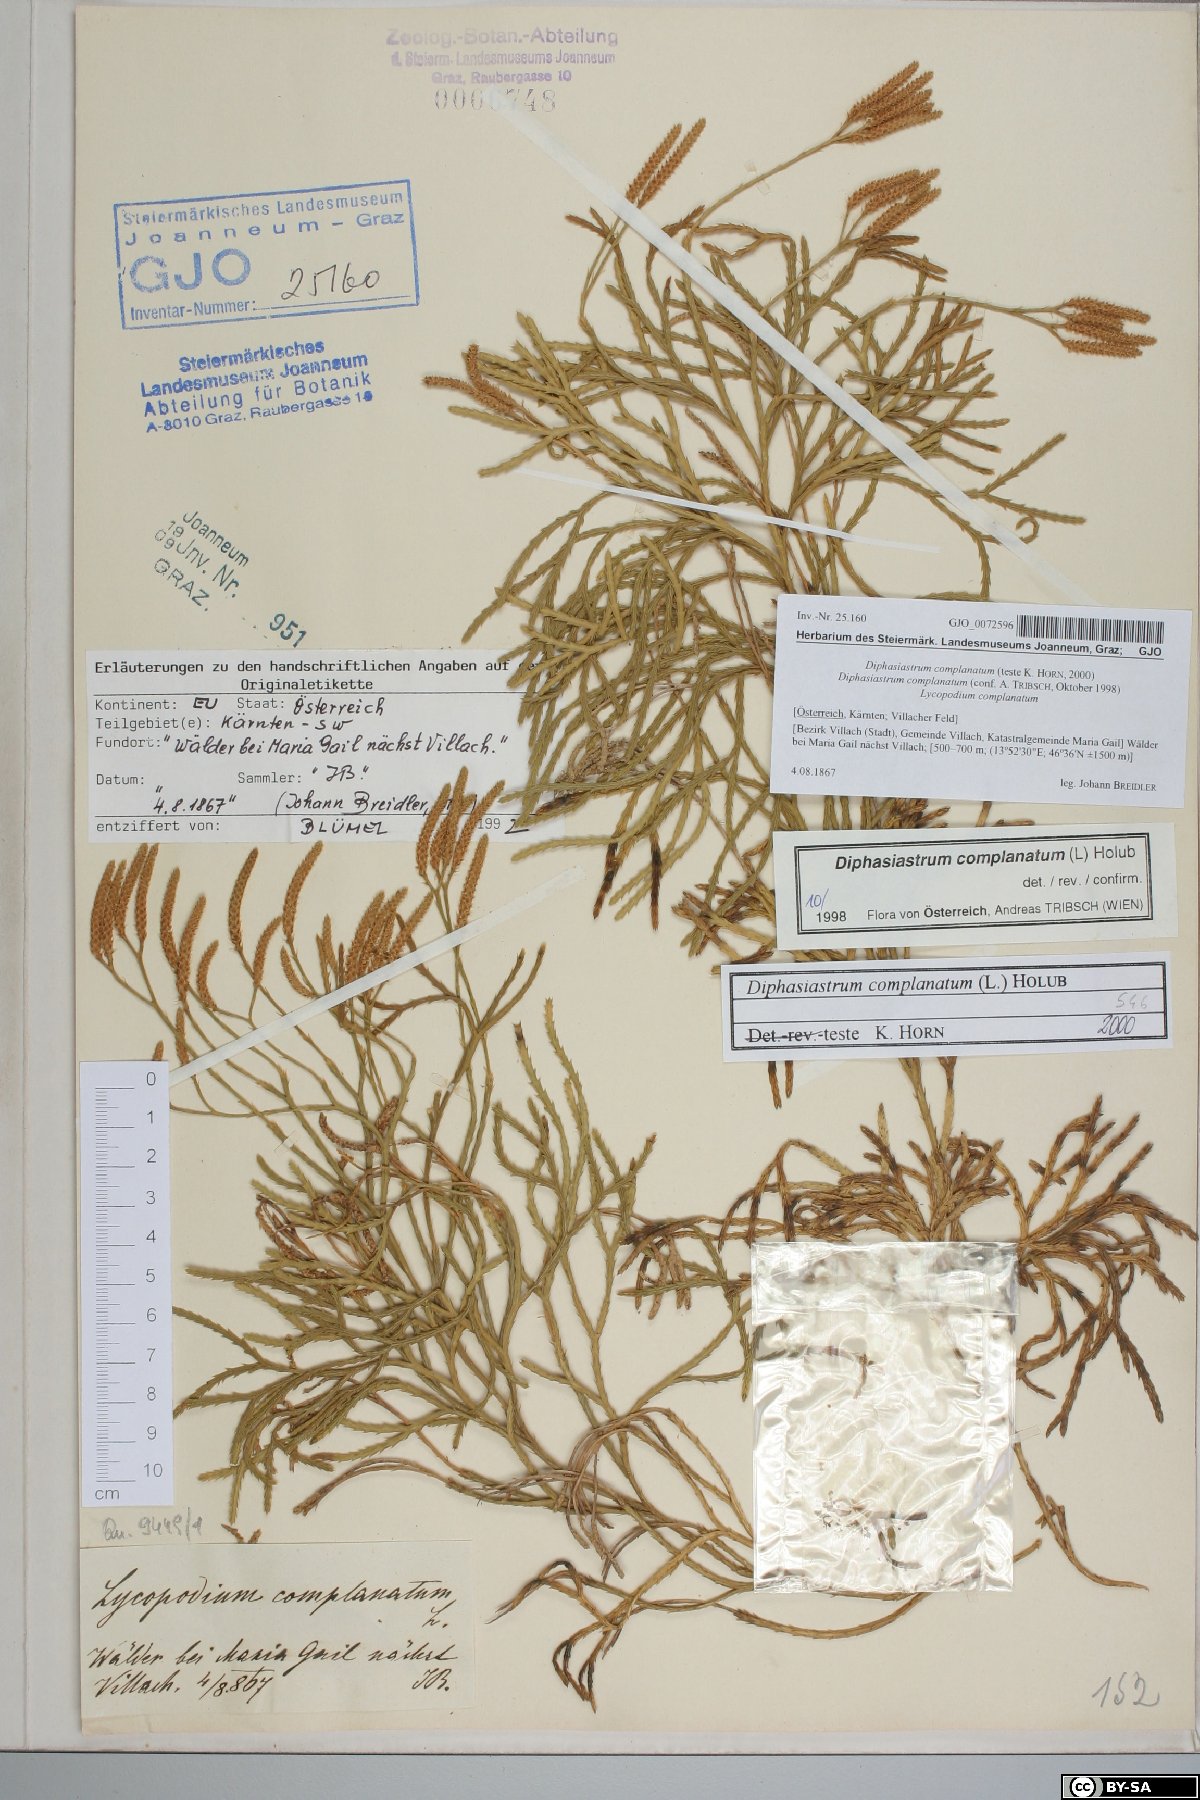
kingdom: Plantae
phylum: Tracheophyta
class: Lycopodiopsida
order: Lycopodiales
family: Lycopodiaceae
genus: Diphasiastrum
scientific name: Diphasiastrum complanatum
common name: Northern running-pine
